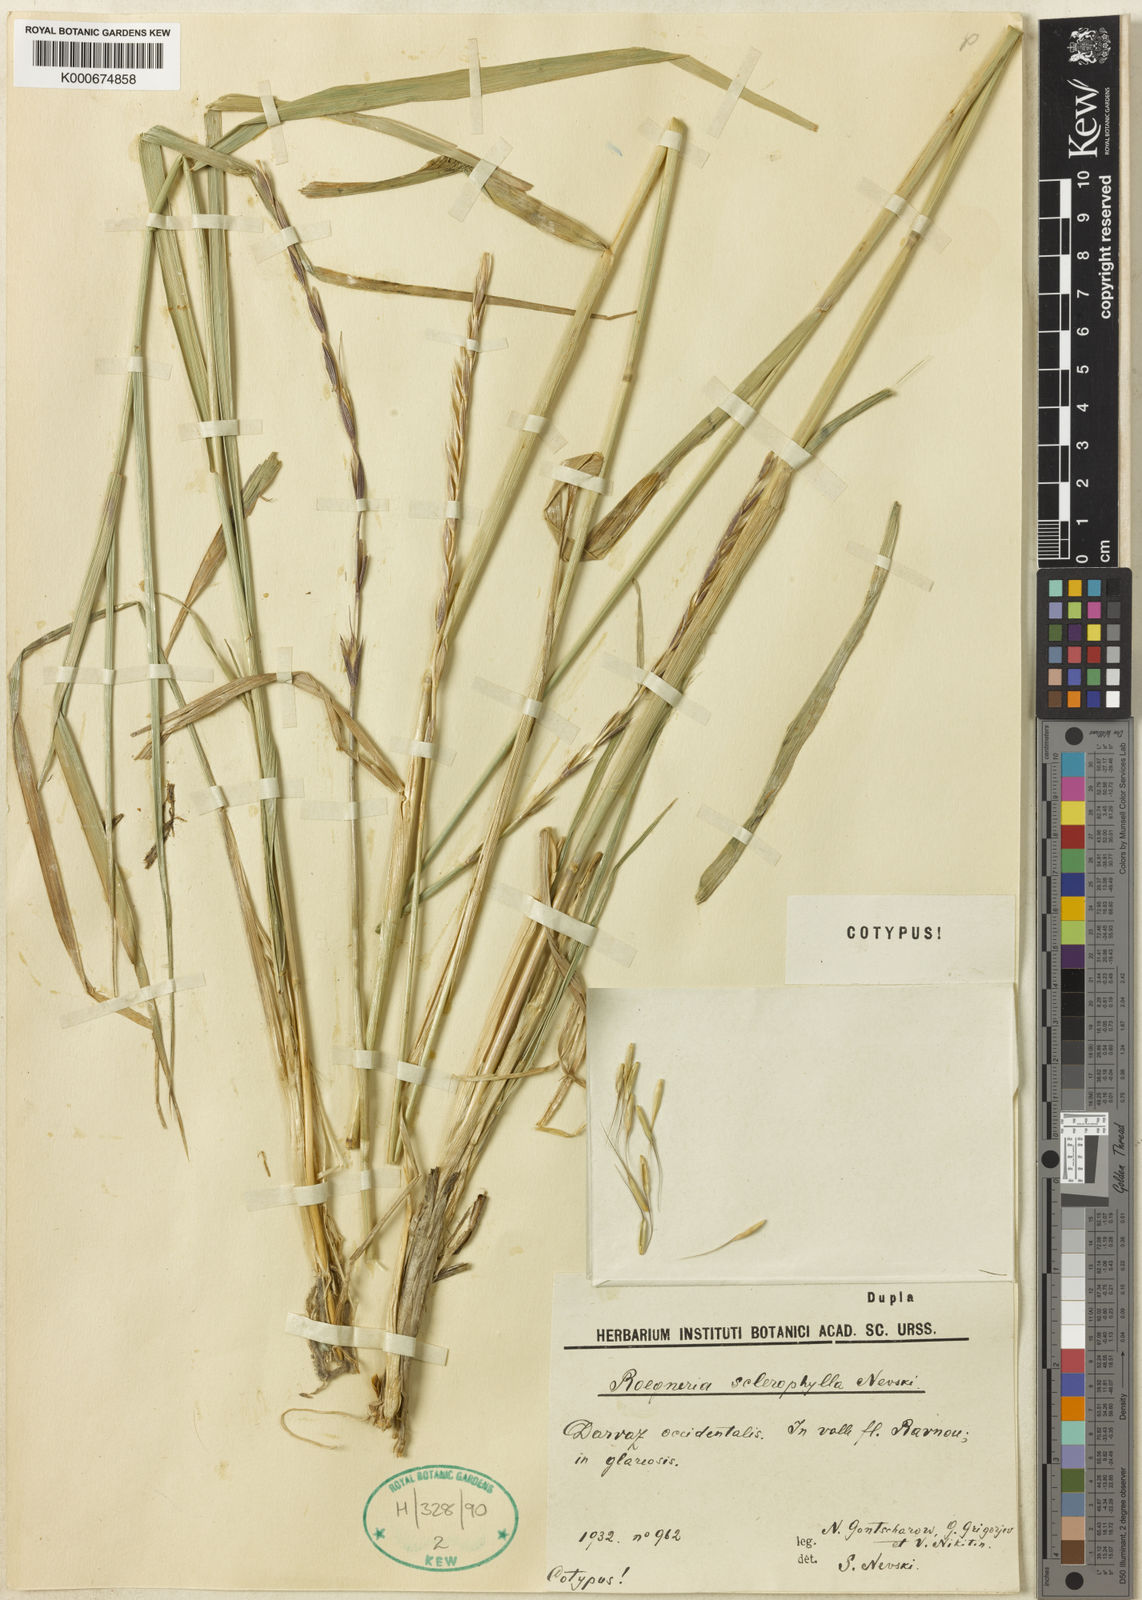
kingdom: Plantae
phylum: Tracheophyta
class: Liliopsida
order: Poales
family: Poaceae
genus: Elymus
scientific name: Elymus sclerophyllus
